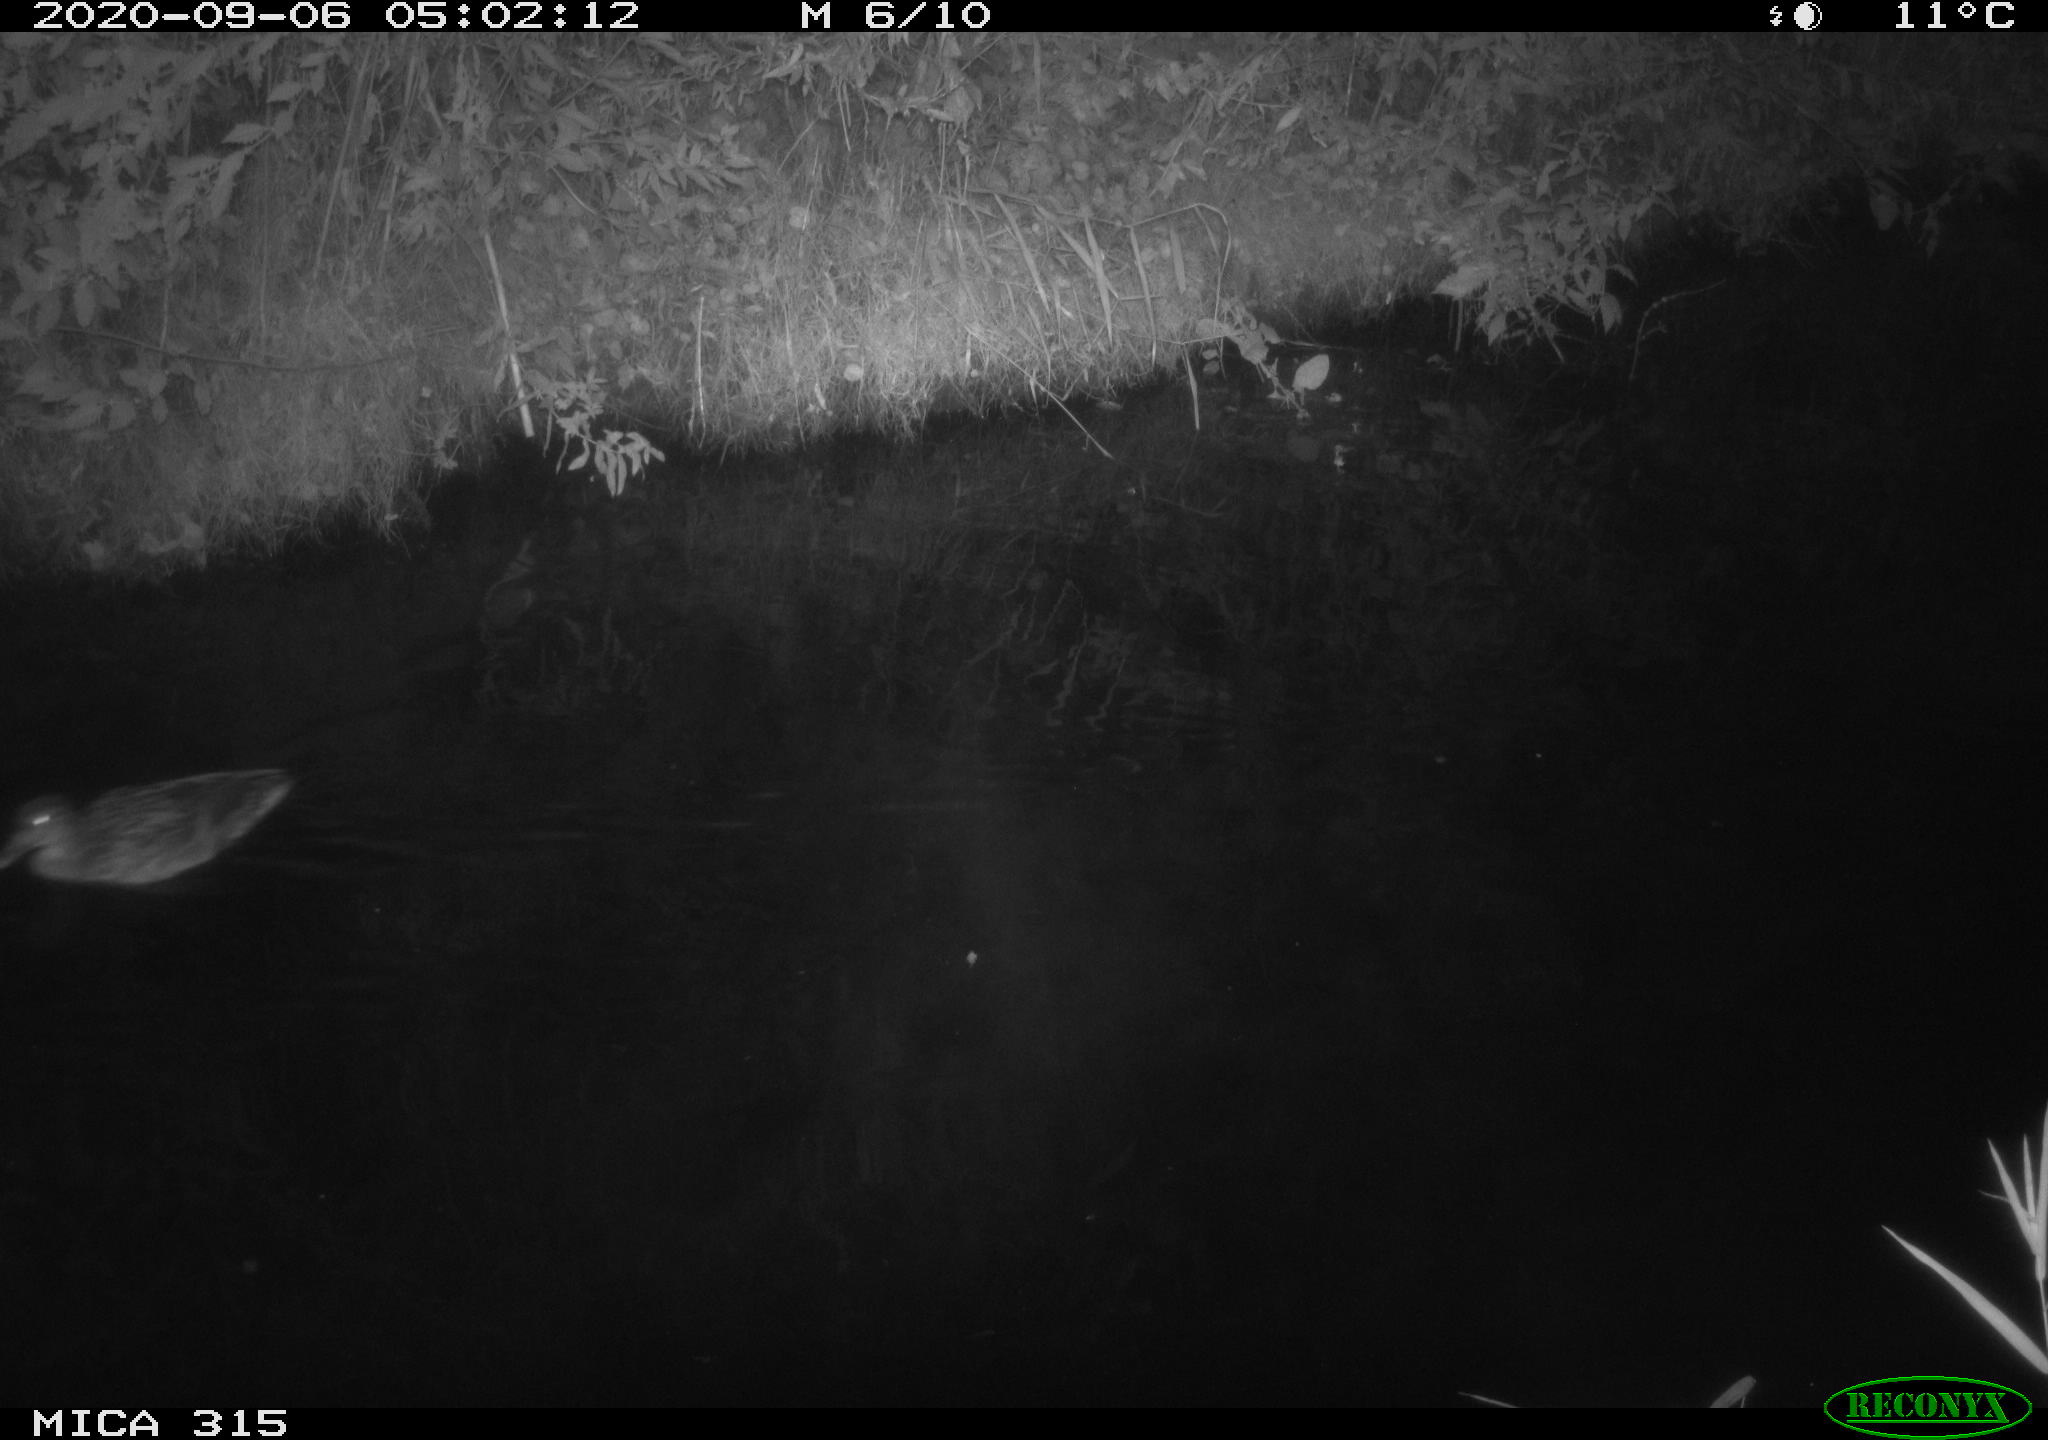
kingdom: Animalia
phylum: Chordata
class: Aves
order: Anseriformes
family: Anatidae
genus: Anas
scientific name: Anas platyrhynchos
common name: Mallard
